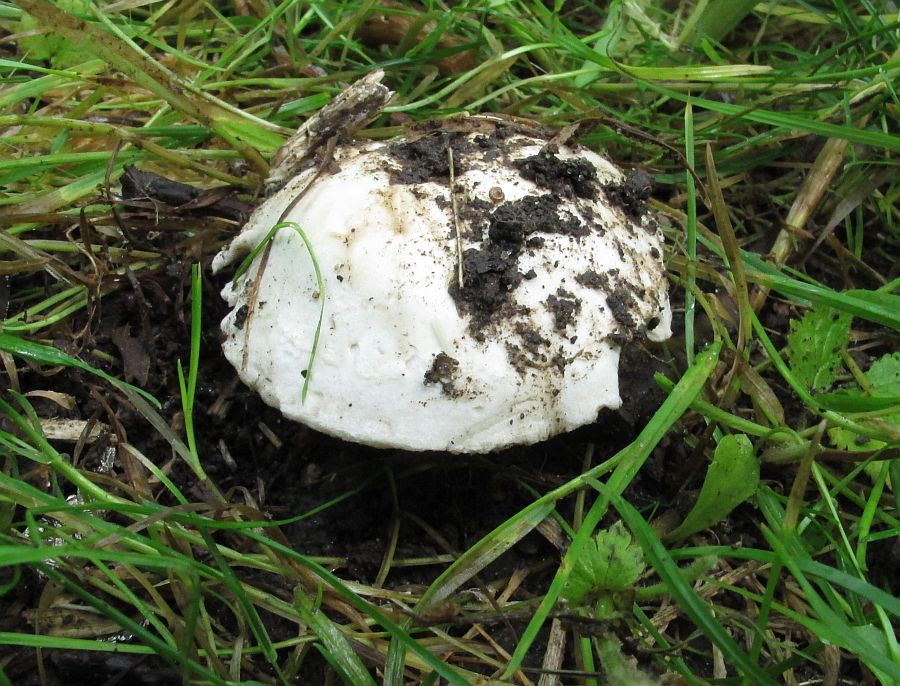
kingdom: Fungi
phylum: Basidiomycota
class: Agaricomycetes
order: Agaricales
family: Agaricaceae
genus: Agaricus
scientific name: Agaricus bitorquis
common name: vej-champignon
